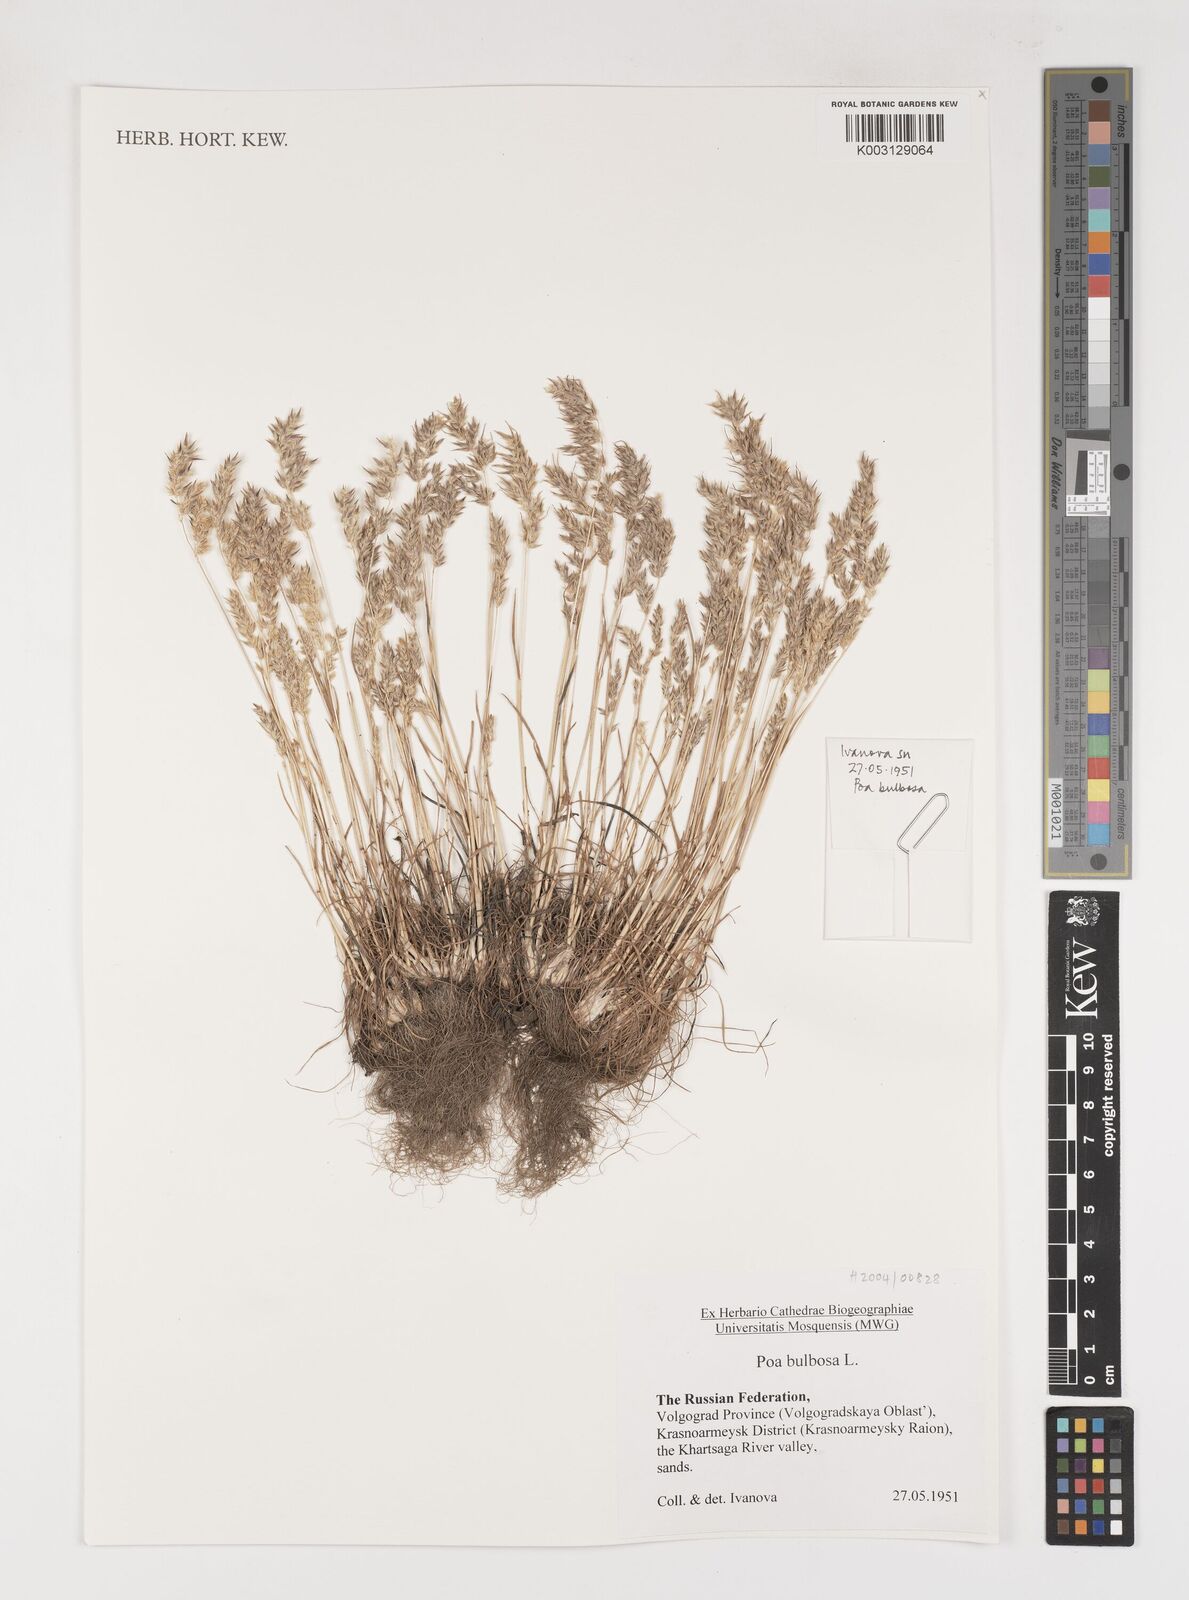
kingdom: Plantae
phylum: Tracheophyta
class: Liliopsida
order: Poales
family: Poaceae
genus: Poa
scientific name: Poa
